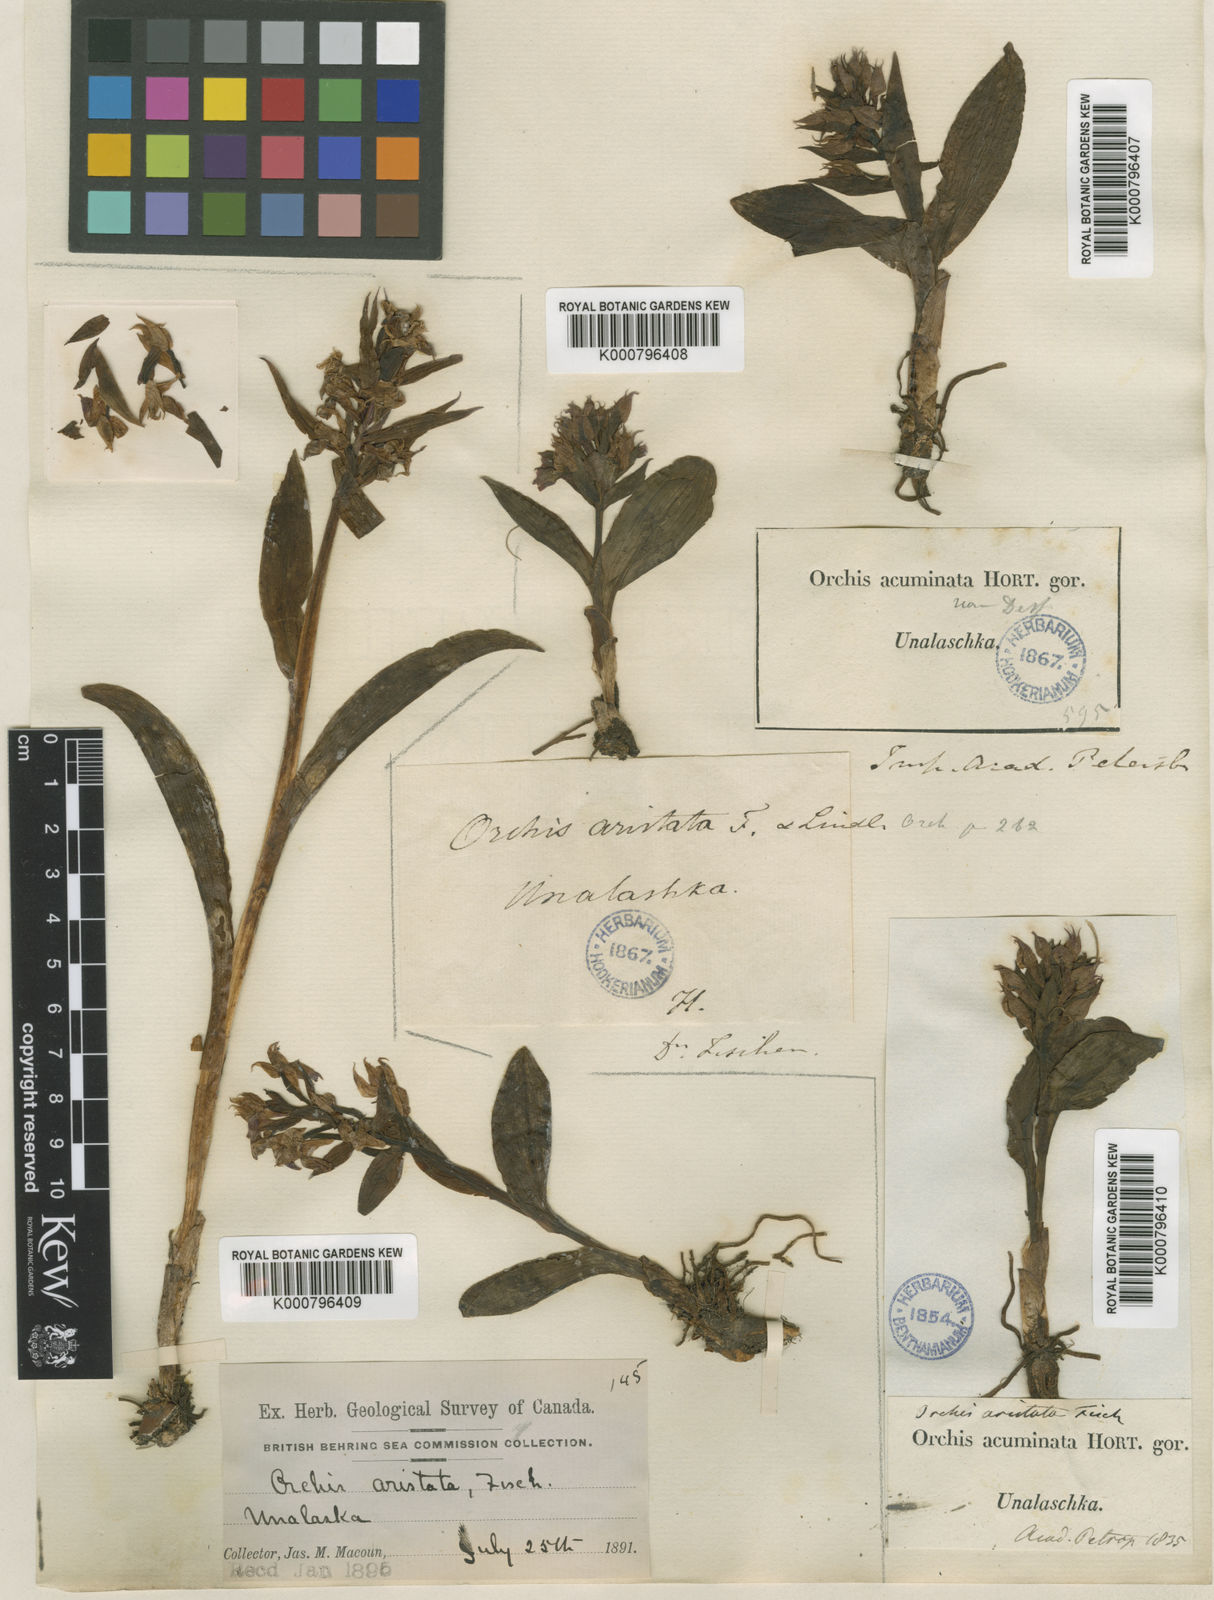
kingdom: Plantae
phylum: Tracheophyta
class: Liliopsida
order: Asparagales
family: Orchidaceae
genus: Dactylorhiza
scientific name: Dactylorhiza
